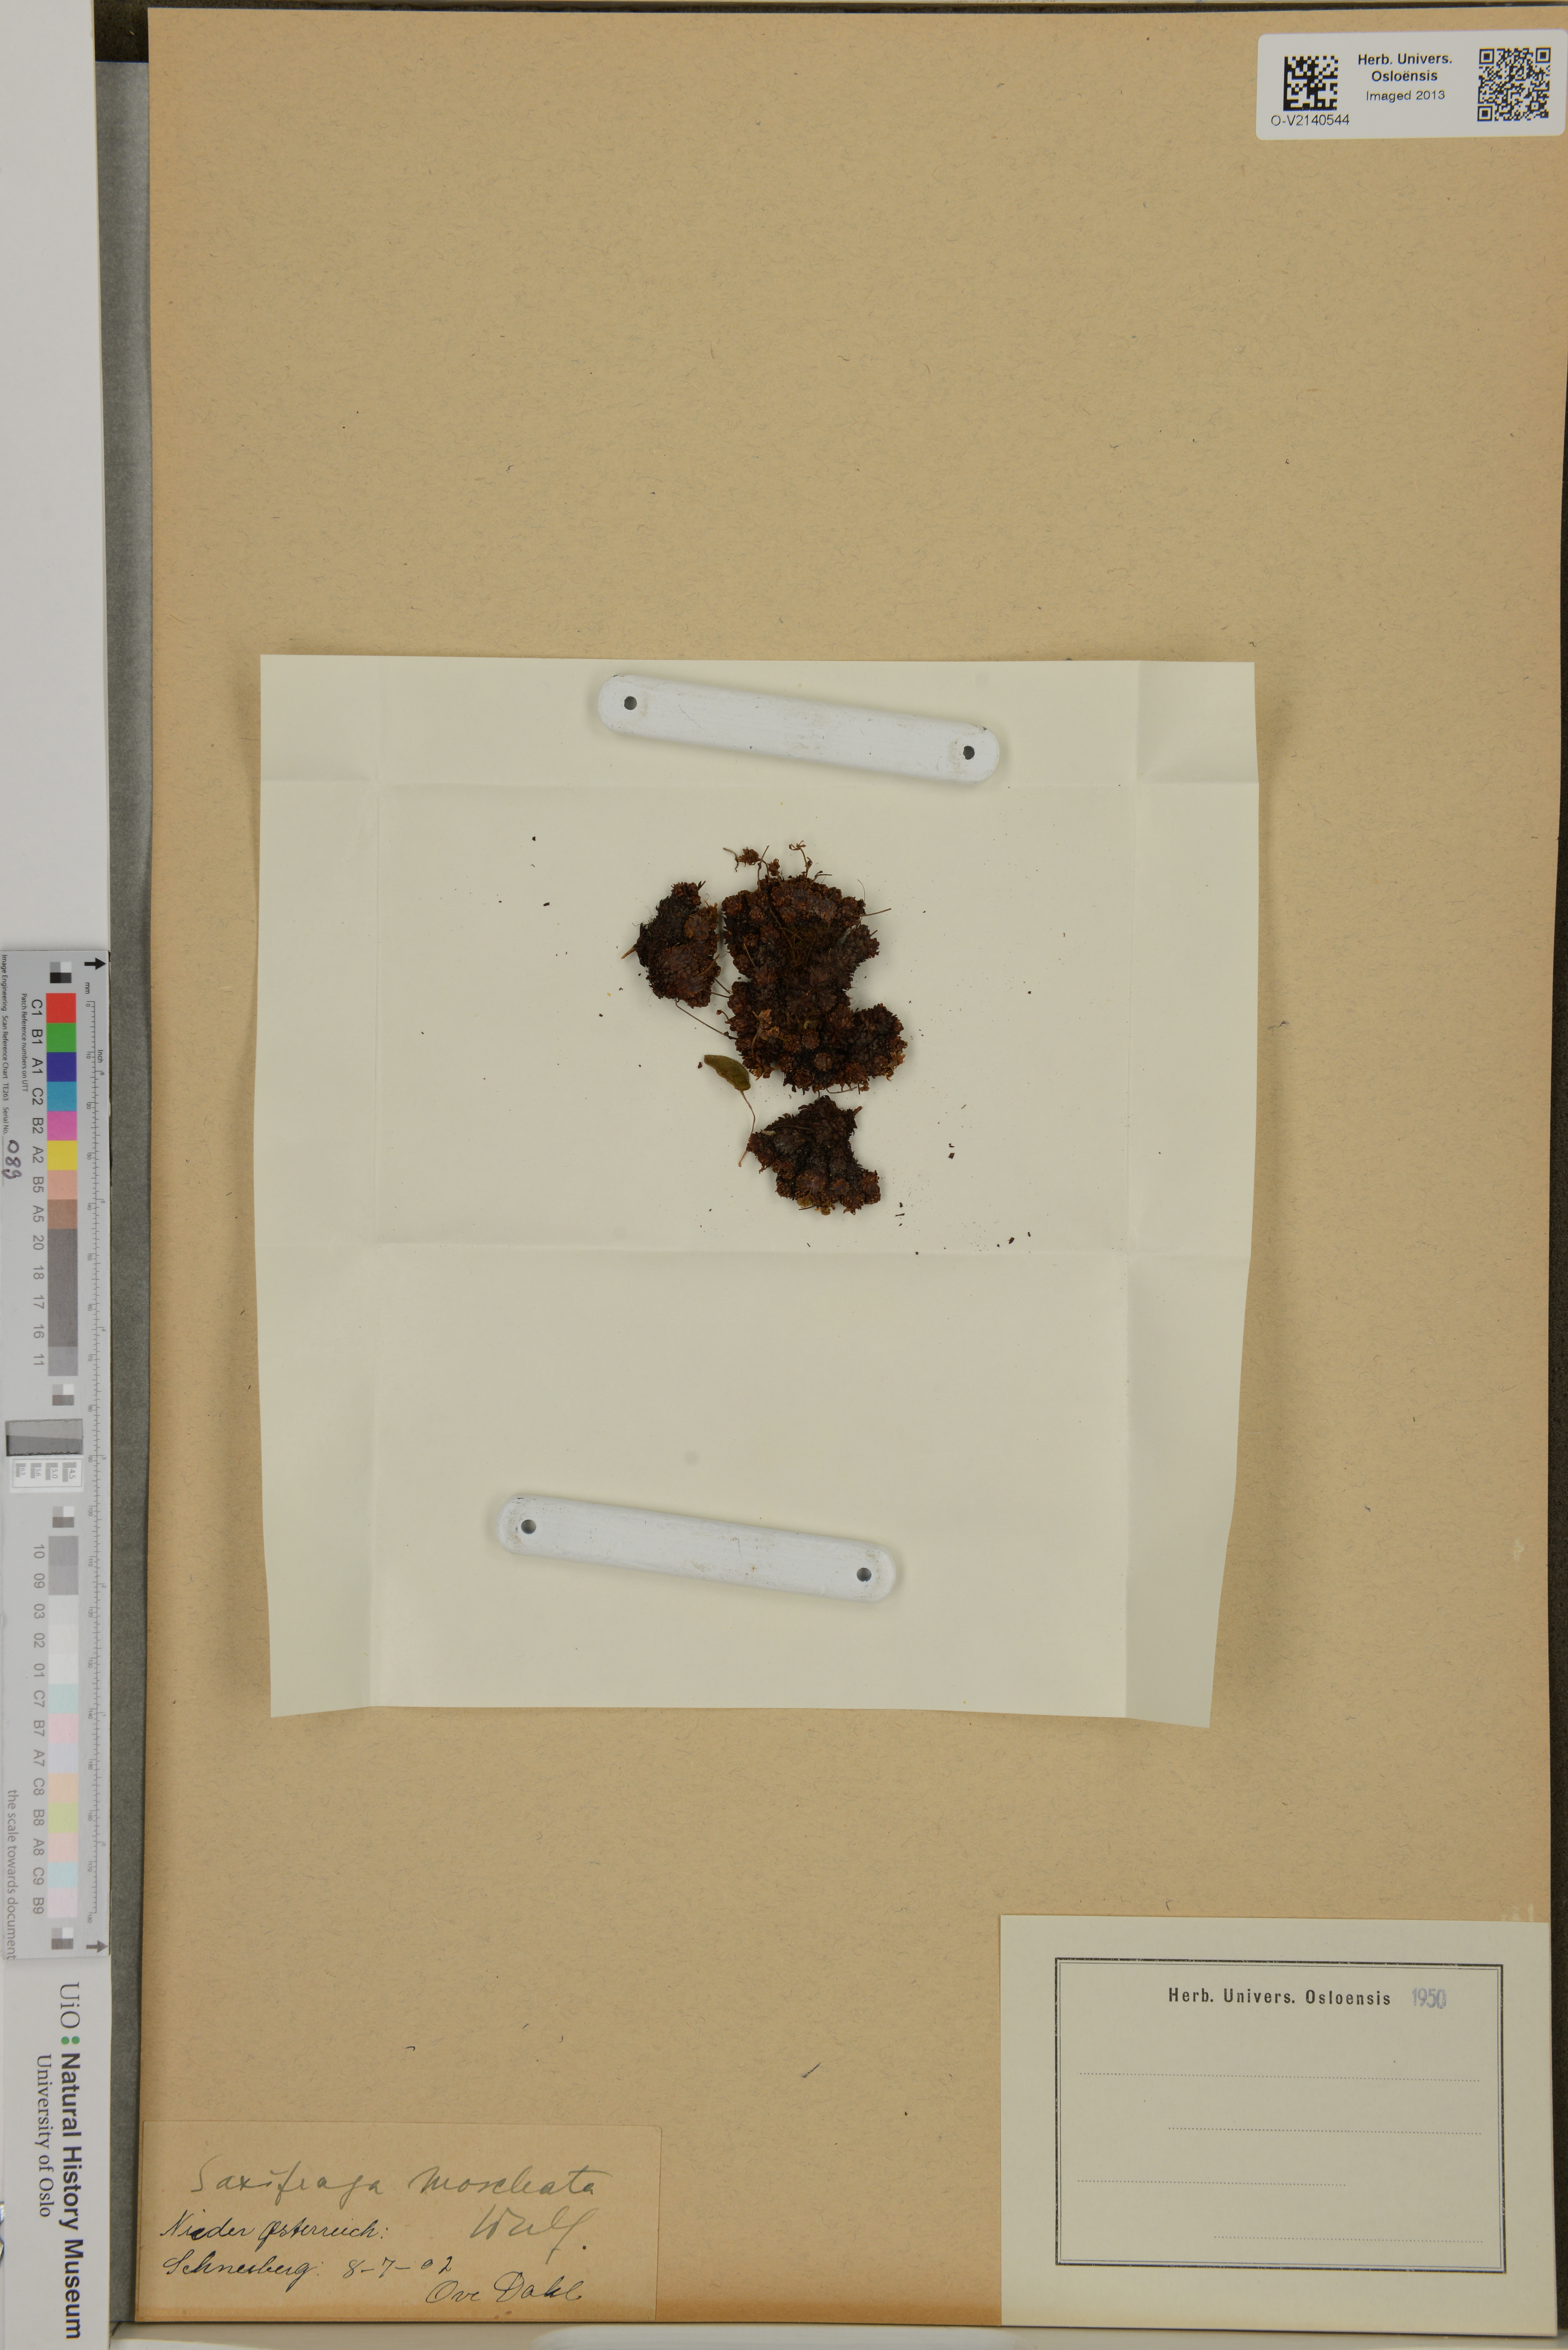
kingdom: Plantae
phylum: Tracheophyta
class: Magnoliopsida
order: Saxifragales
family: Saxifragaceae
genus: Saxifraga
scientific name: Saxifraga moschata
